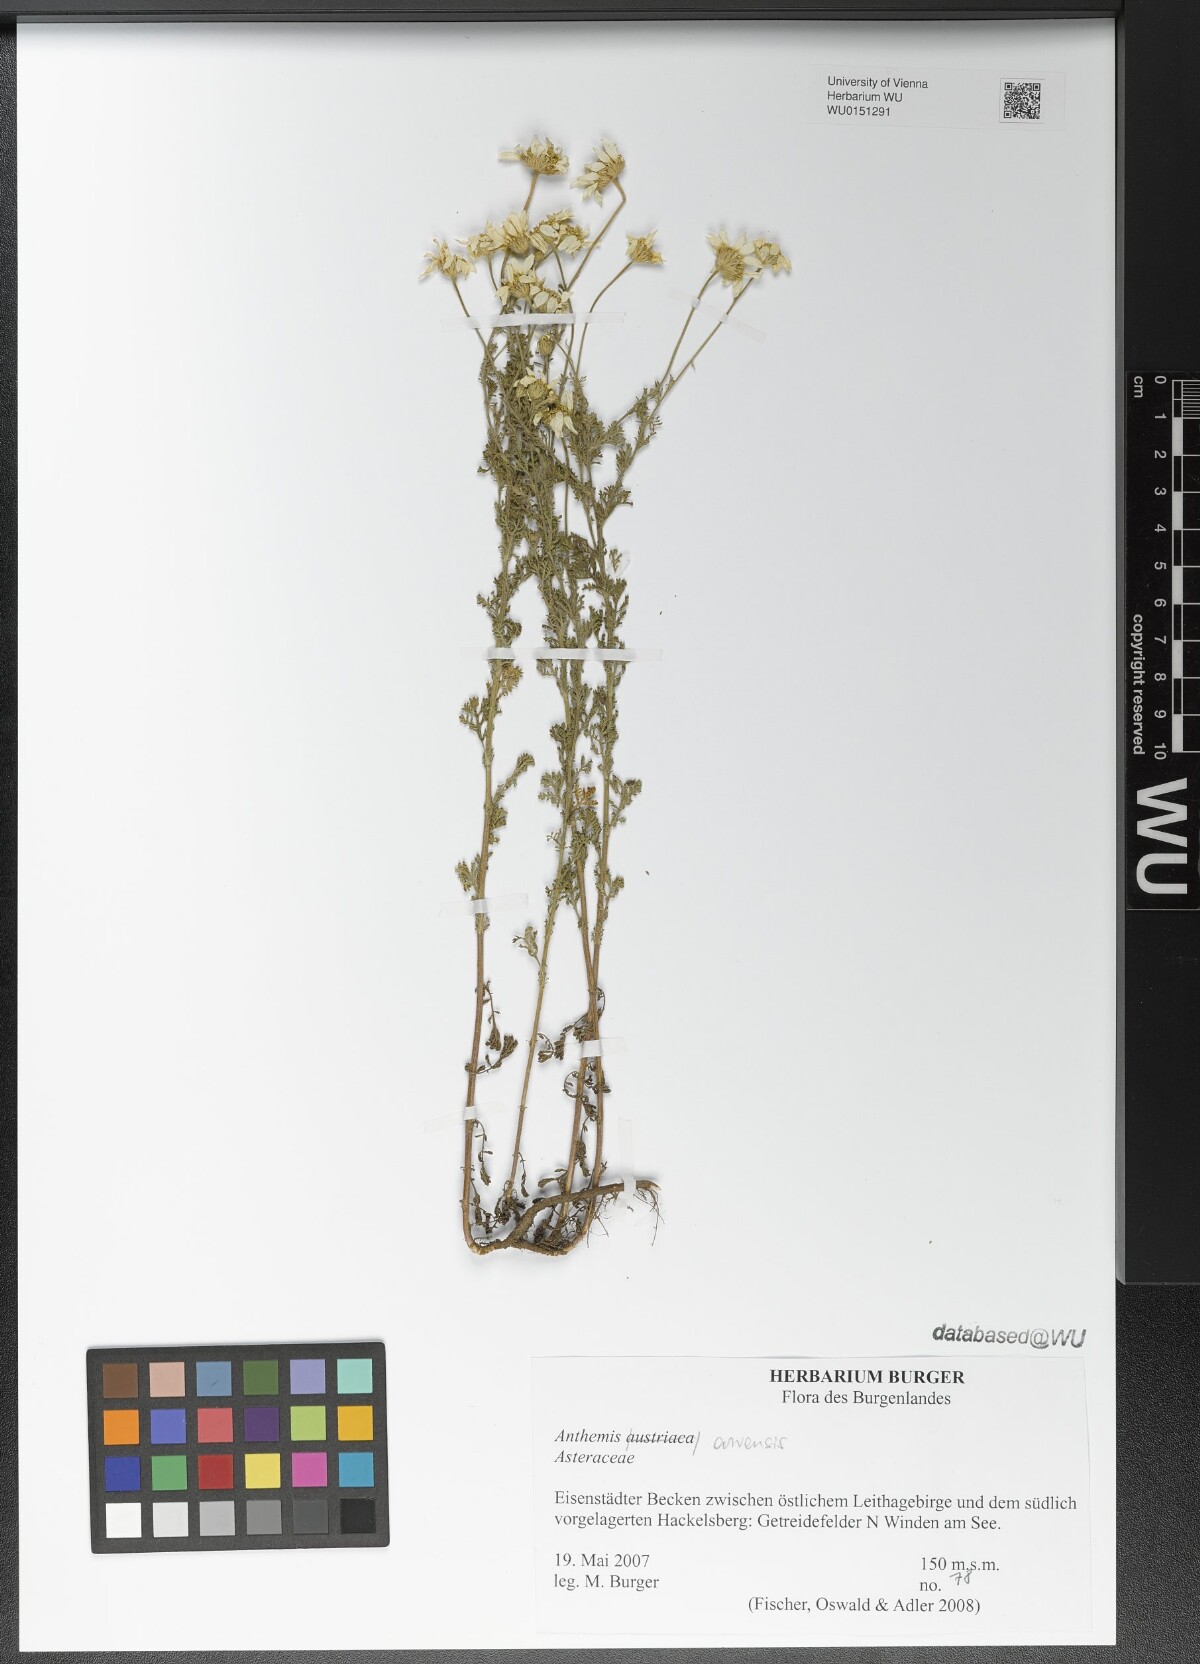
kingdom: Plantae
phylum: Tracheophyta
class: Magnoliopsida
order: Asterales
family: Asteraceae
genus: Anthemis
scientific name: Anthemis arvensis
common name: Corn chamomile
